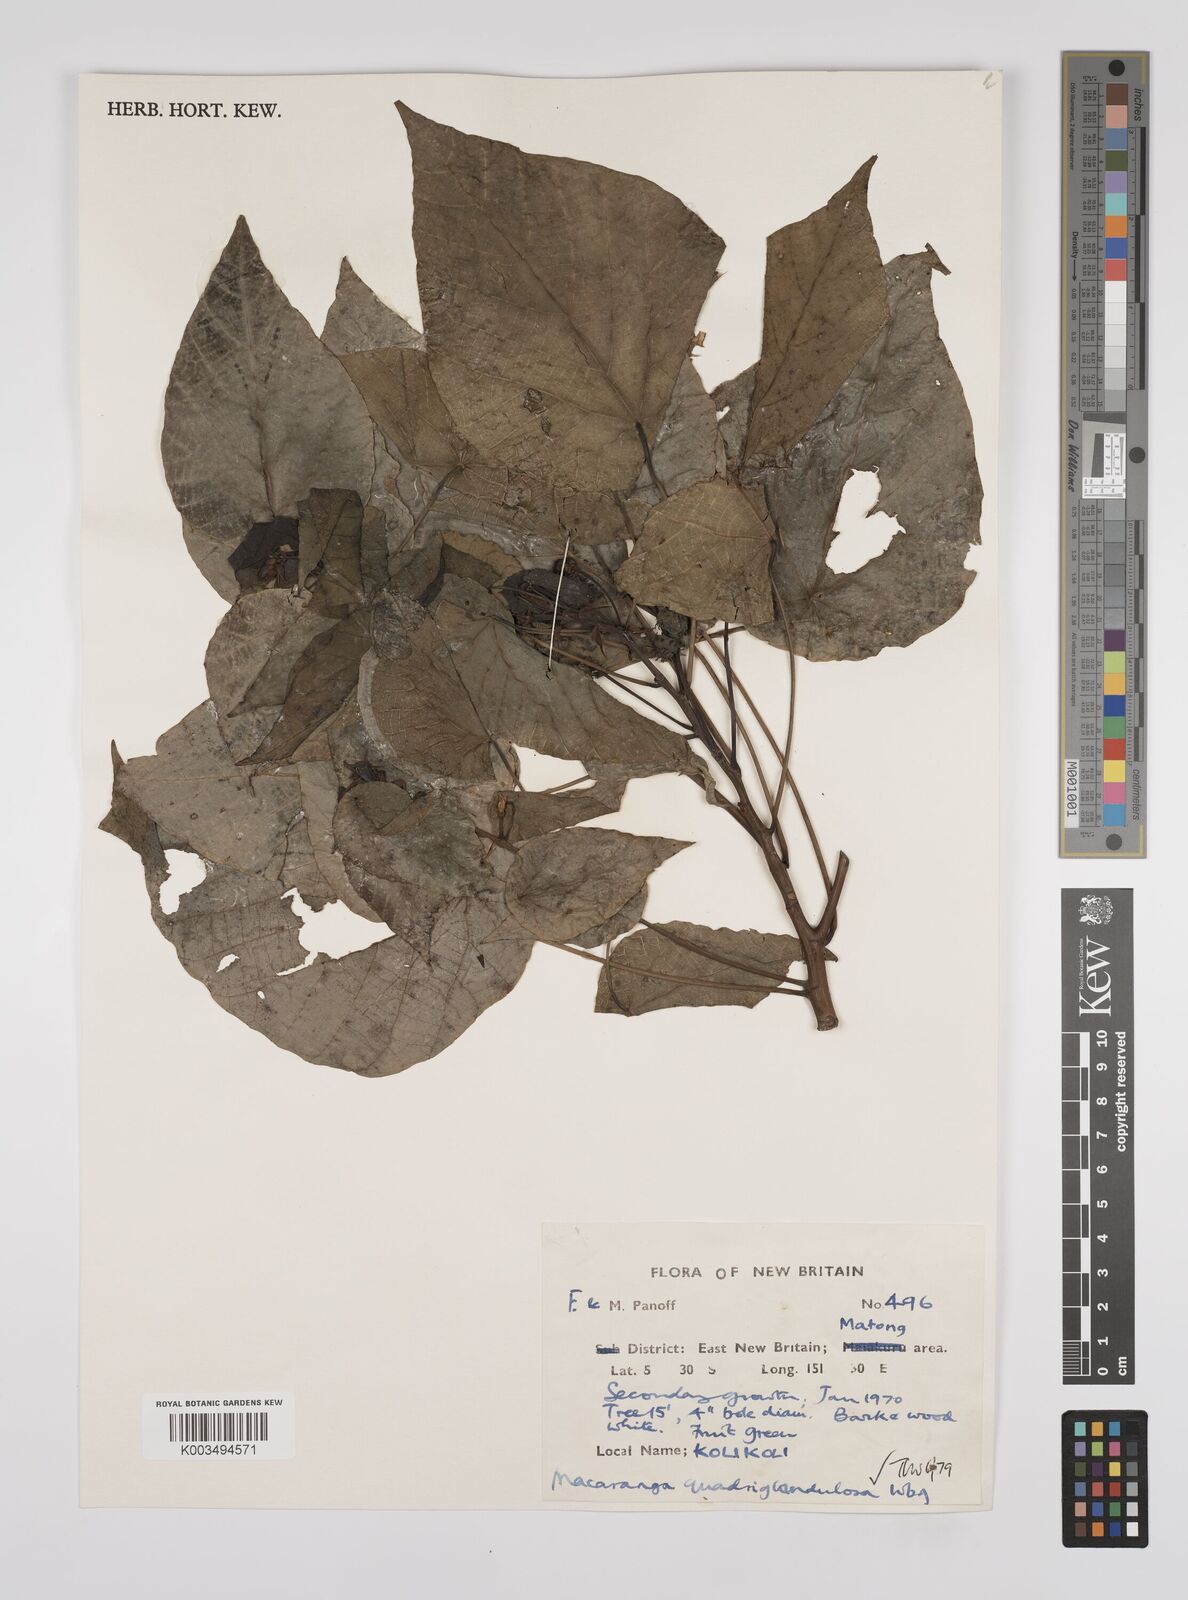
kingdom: Plantae
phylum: Tracheophyta
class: Magnoliopsida
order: Malpighiales
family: Euphorbiaceae
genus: Macaranga
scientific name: Macaranga quadriglandulosa
